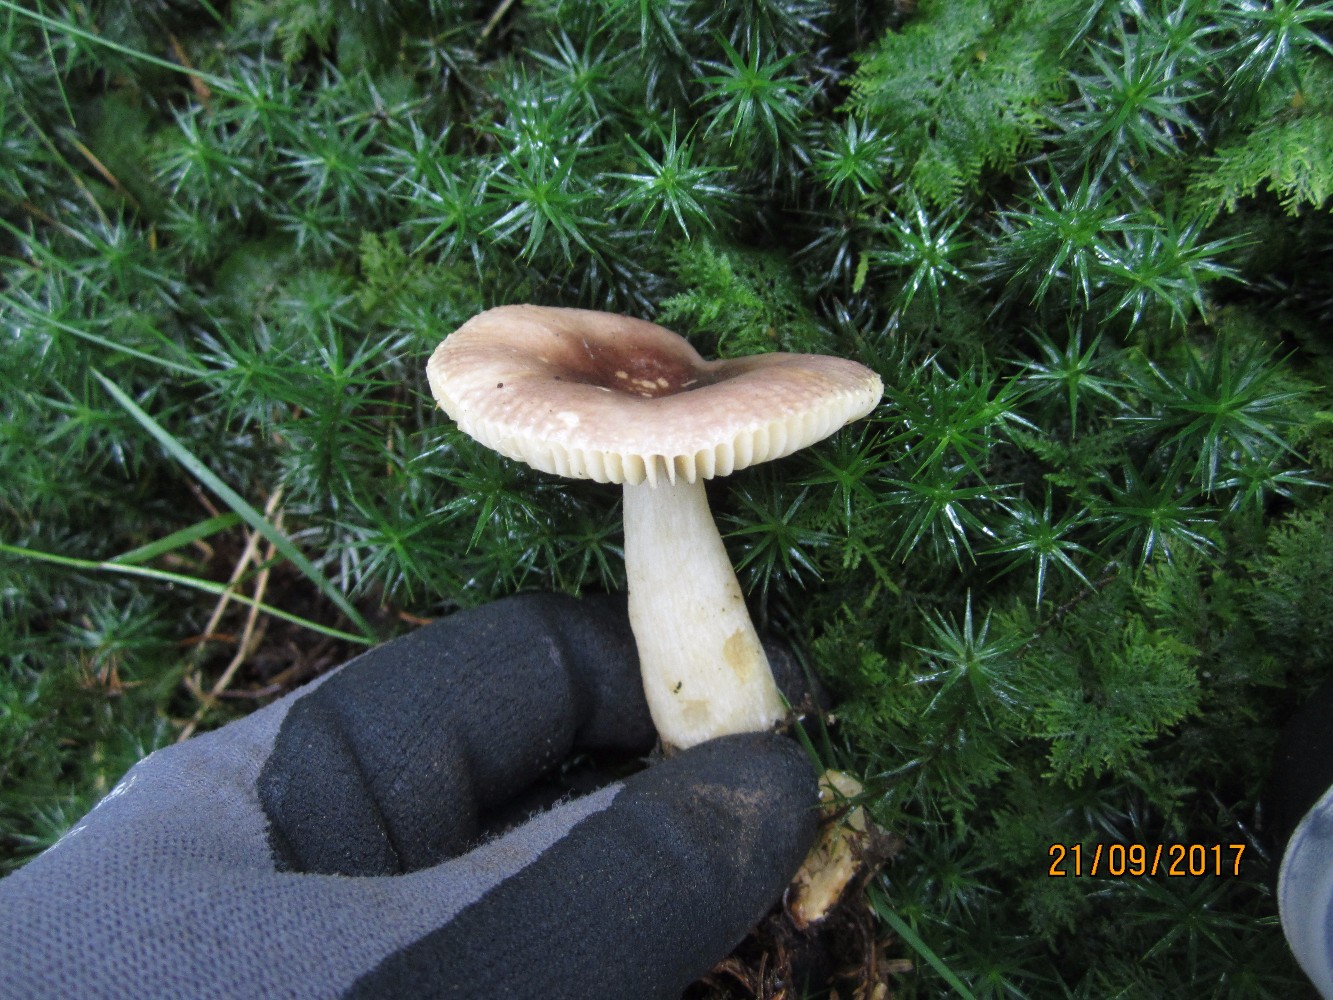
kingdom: Fungi
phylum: Basidiomycota
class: Agaricomycetes
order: Russulales
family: Russulaceae
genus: Russula
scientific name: Russula puellaris
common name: gulstokket skørhat
